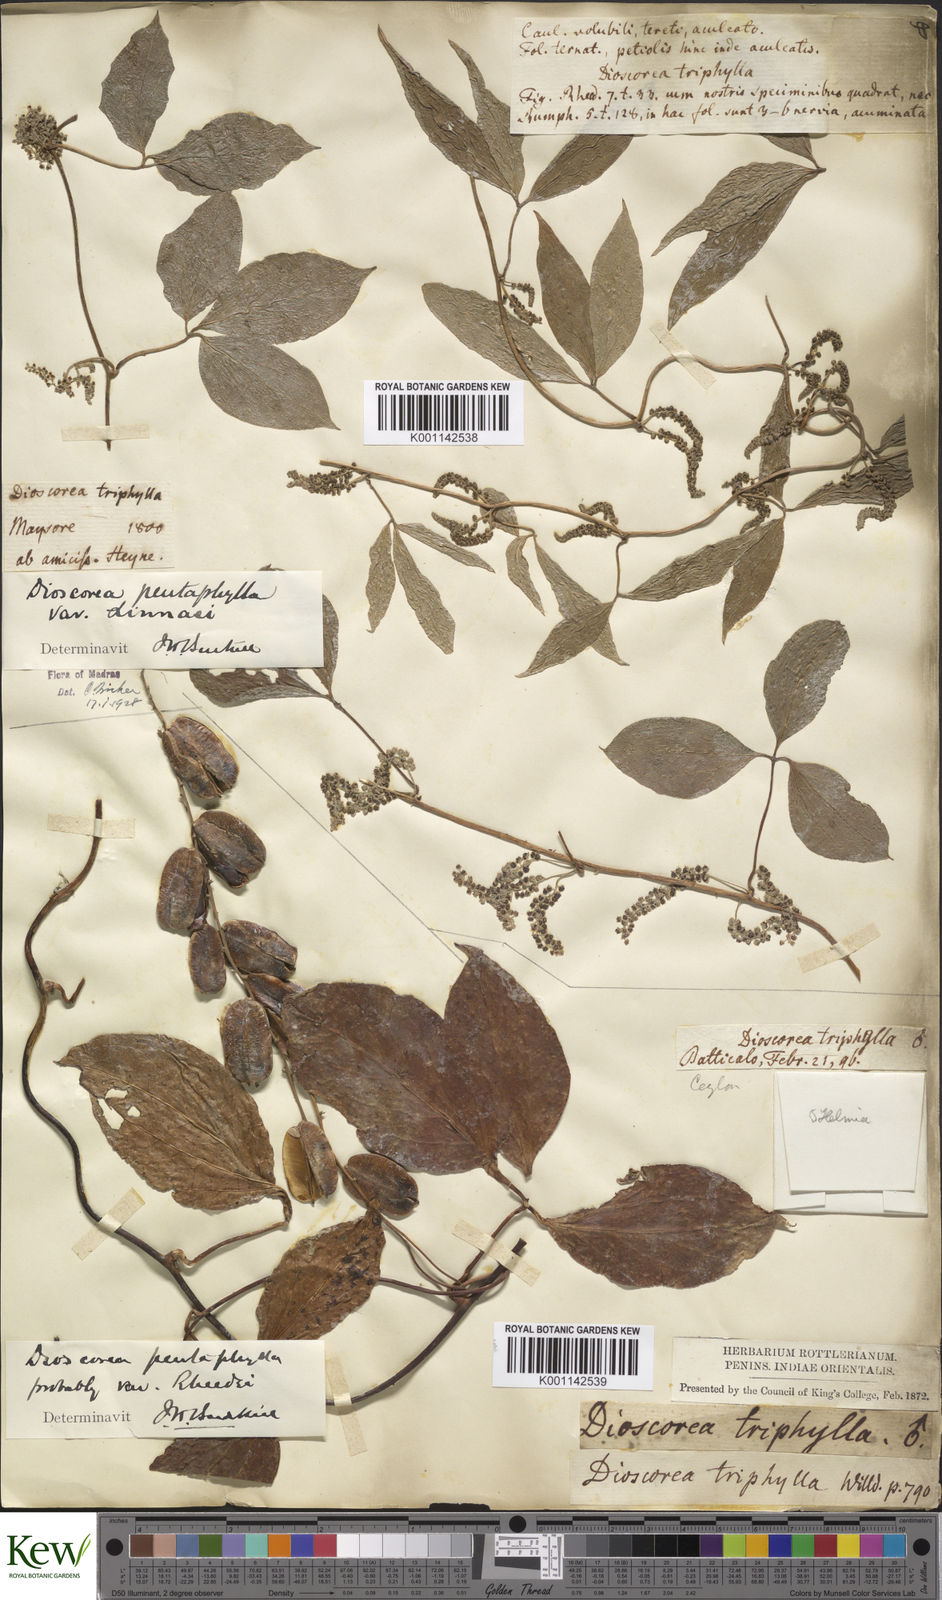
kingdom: Plantae
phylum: Tracheophyta
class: Liliopsida
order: Dioscoreales
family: Dioscoreaceae
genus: Dioscorea
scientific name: Dioscorea pentaphylla
